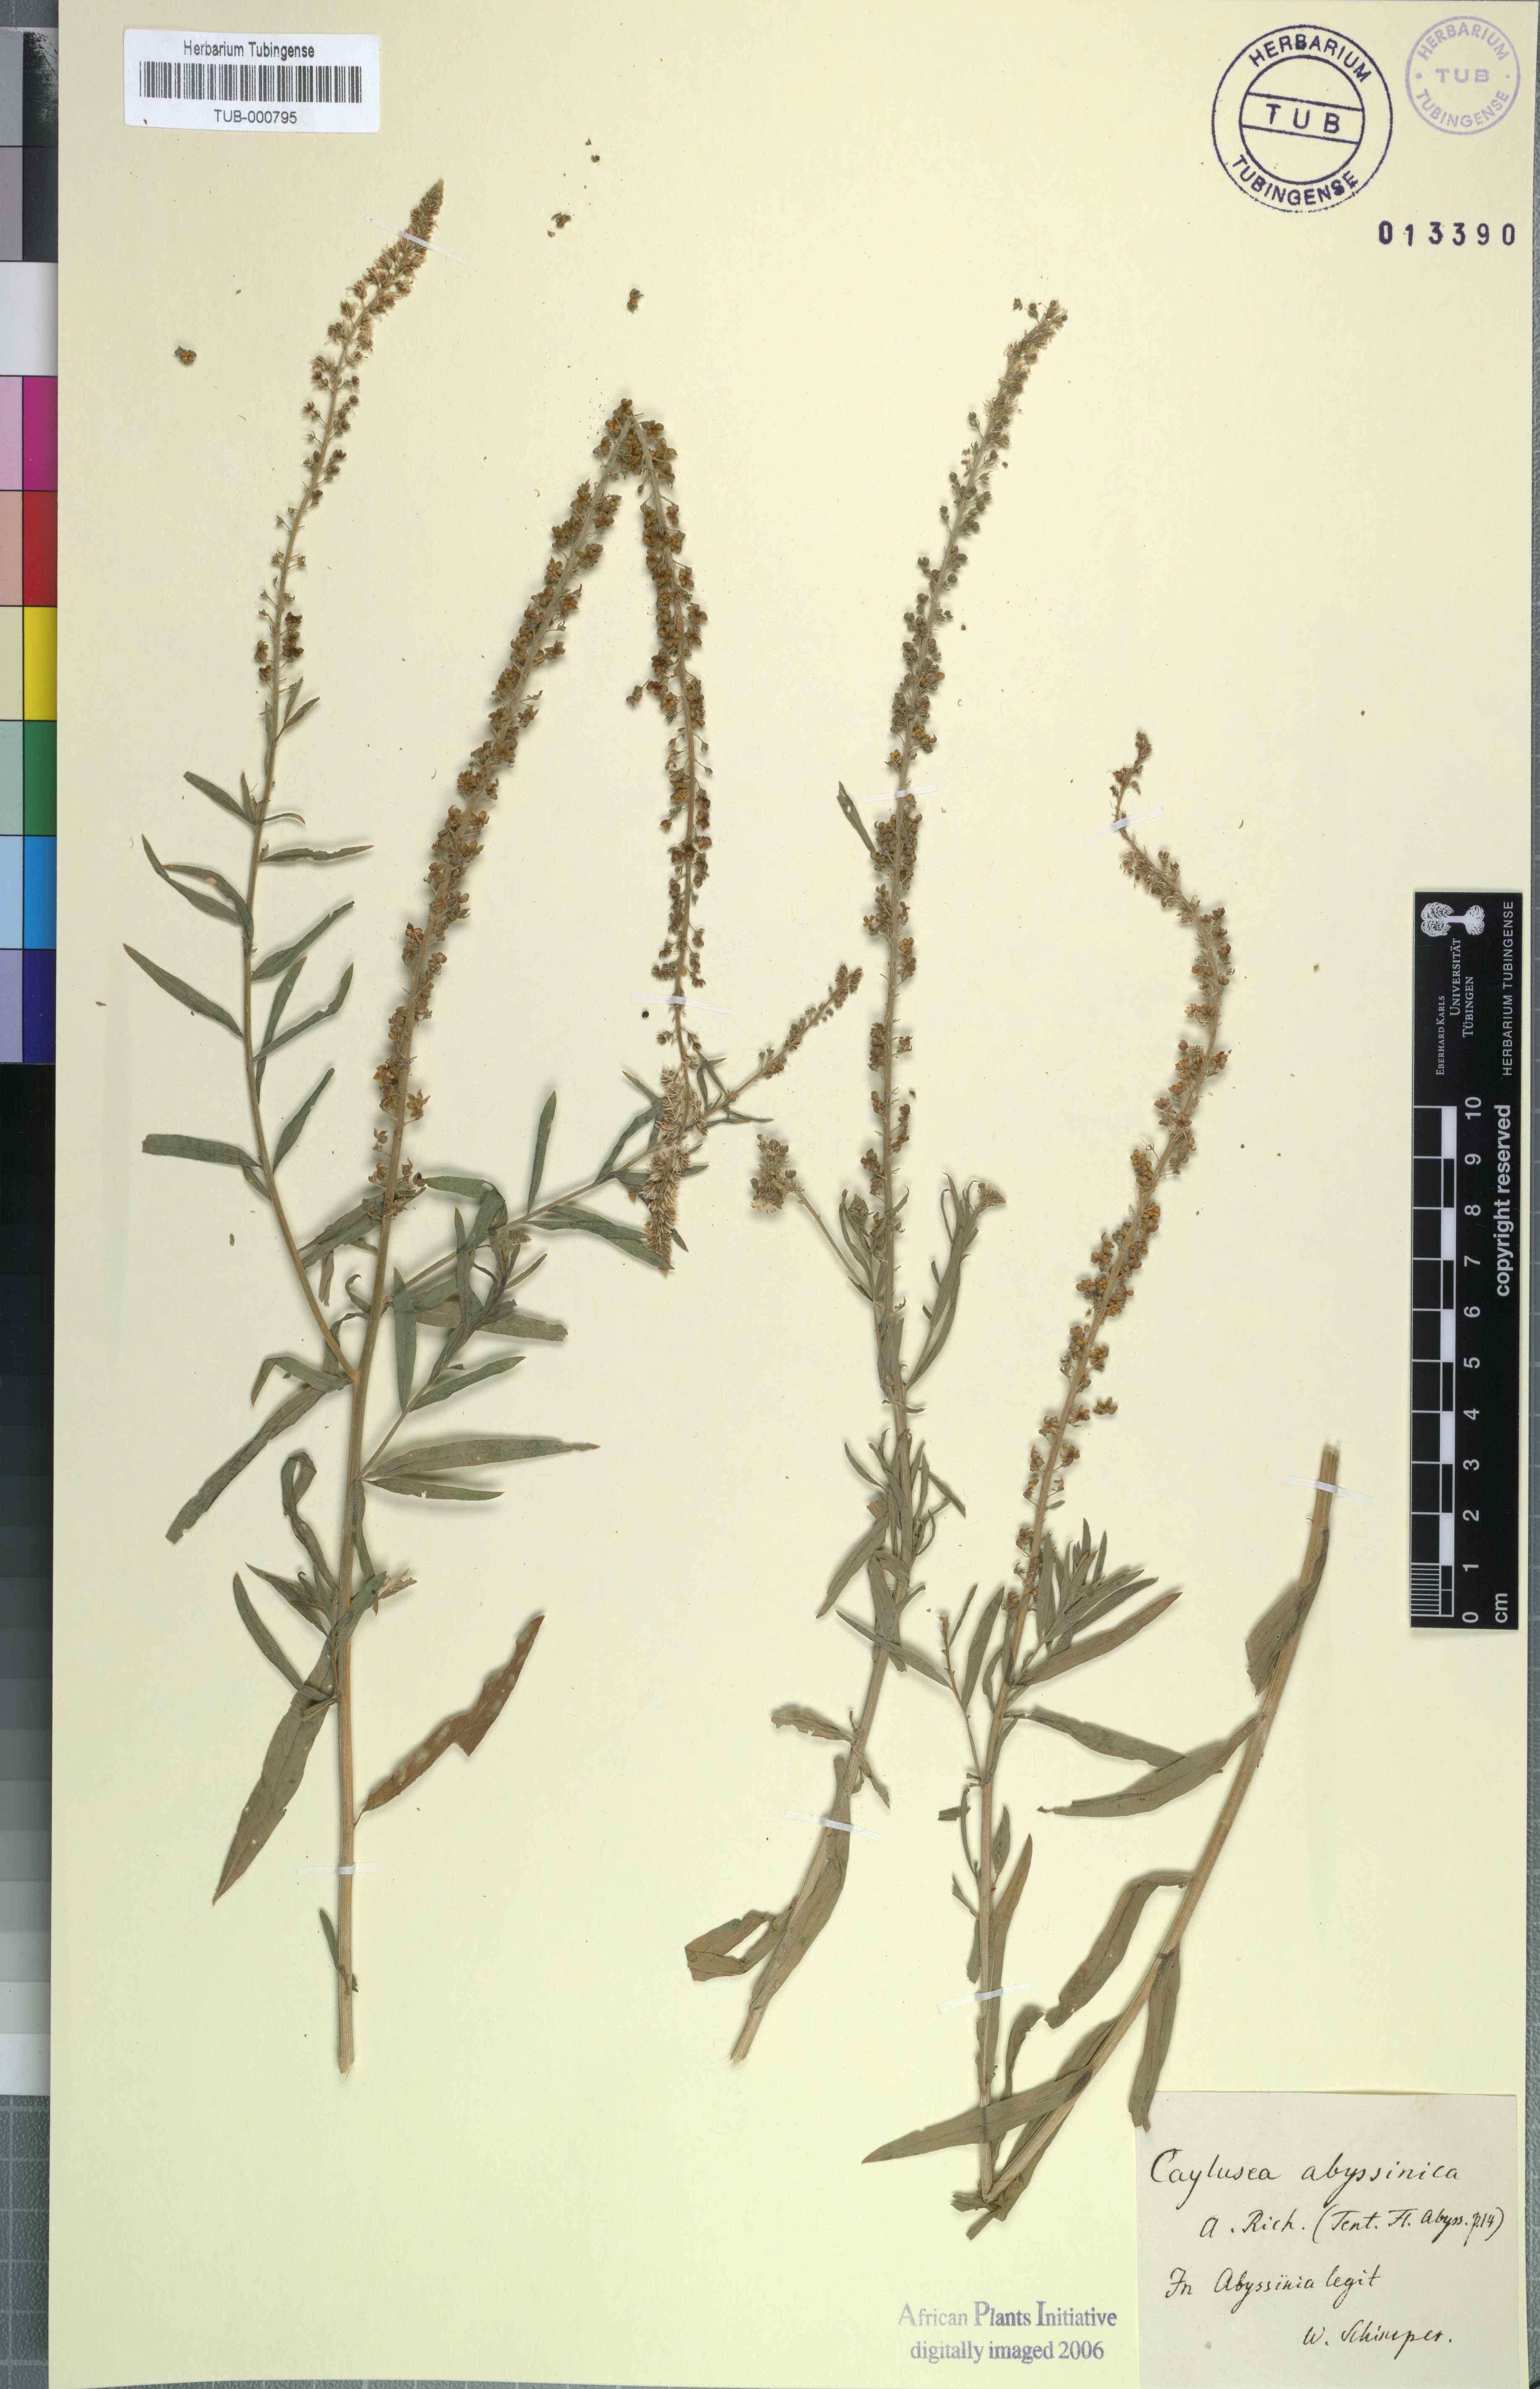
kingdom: Plantae
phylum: Tracheophyta
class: Magnoliopsida
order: Brassicales
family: Resedaceae
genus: Caylusea
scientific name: Caylusea abyssinica
